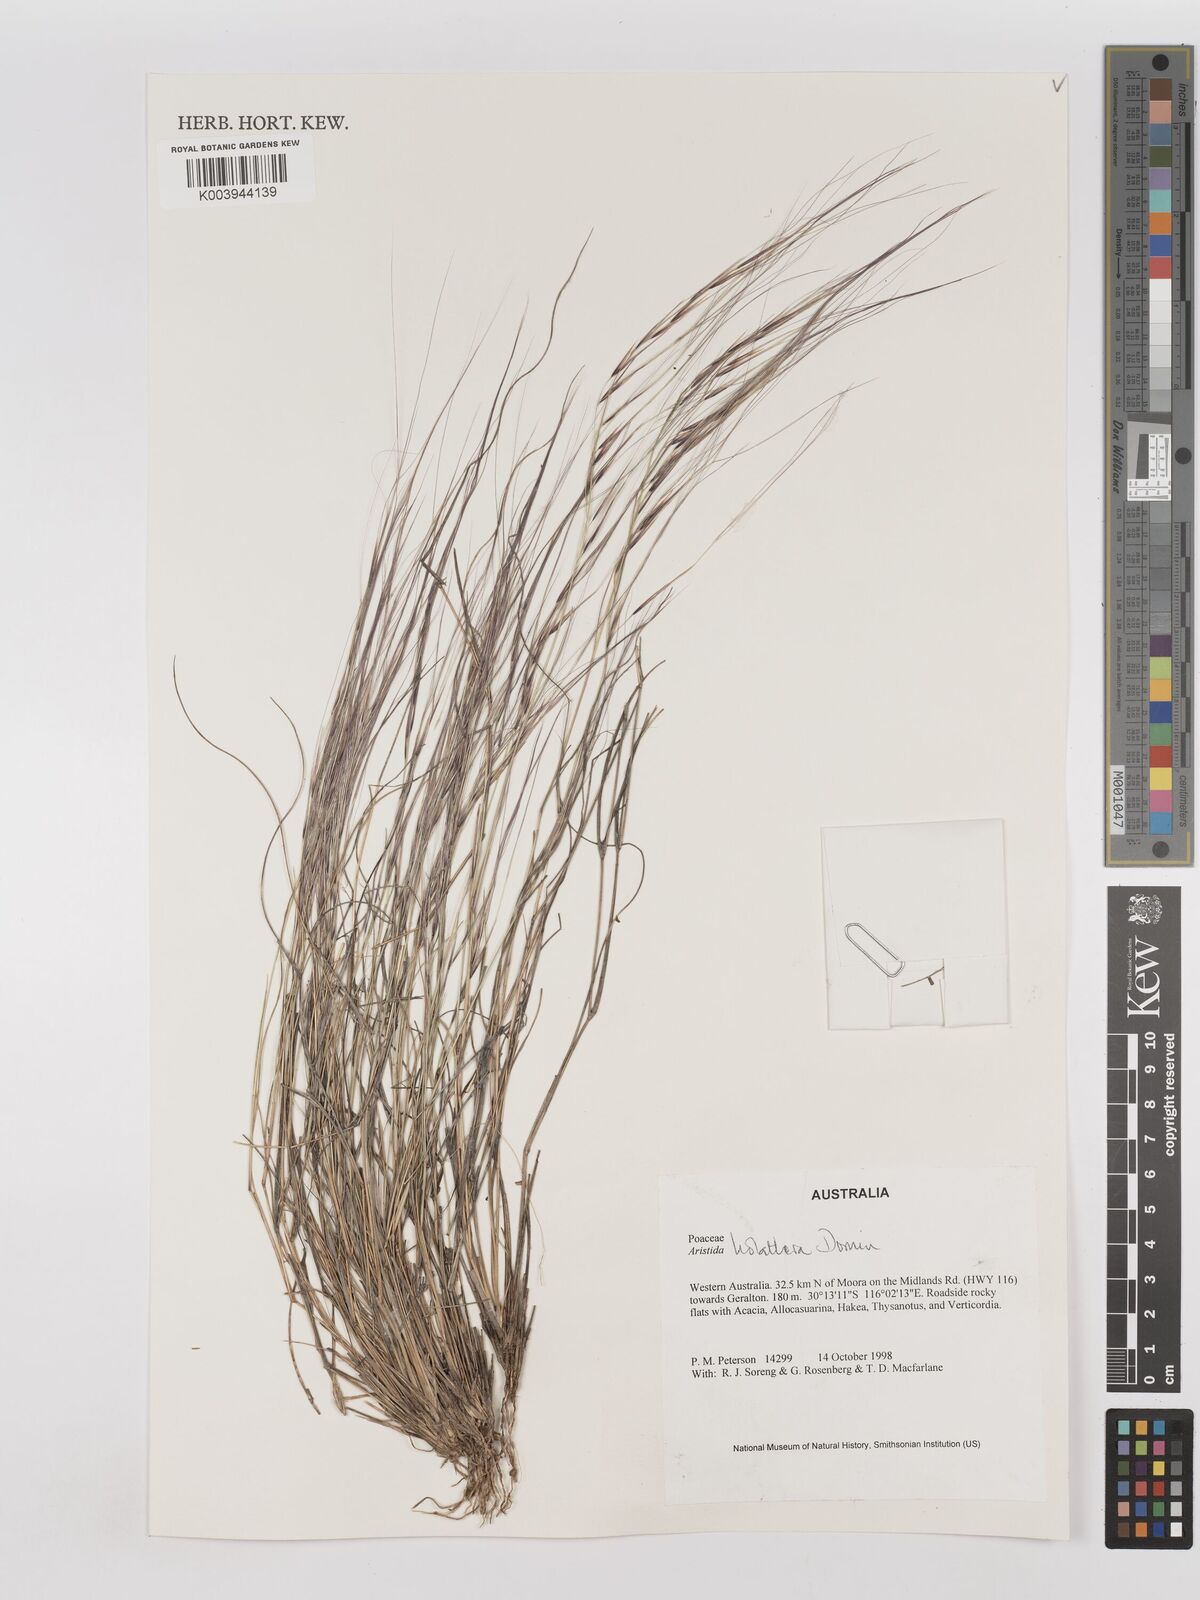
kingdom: Plantae
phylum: Tracheophyta
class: Liliopsida
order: Poales
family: Poaceae
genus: Aristida
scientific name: Aristida holathera
